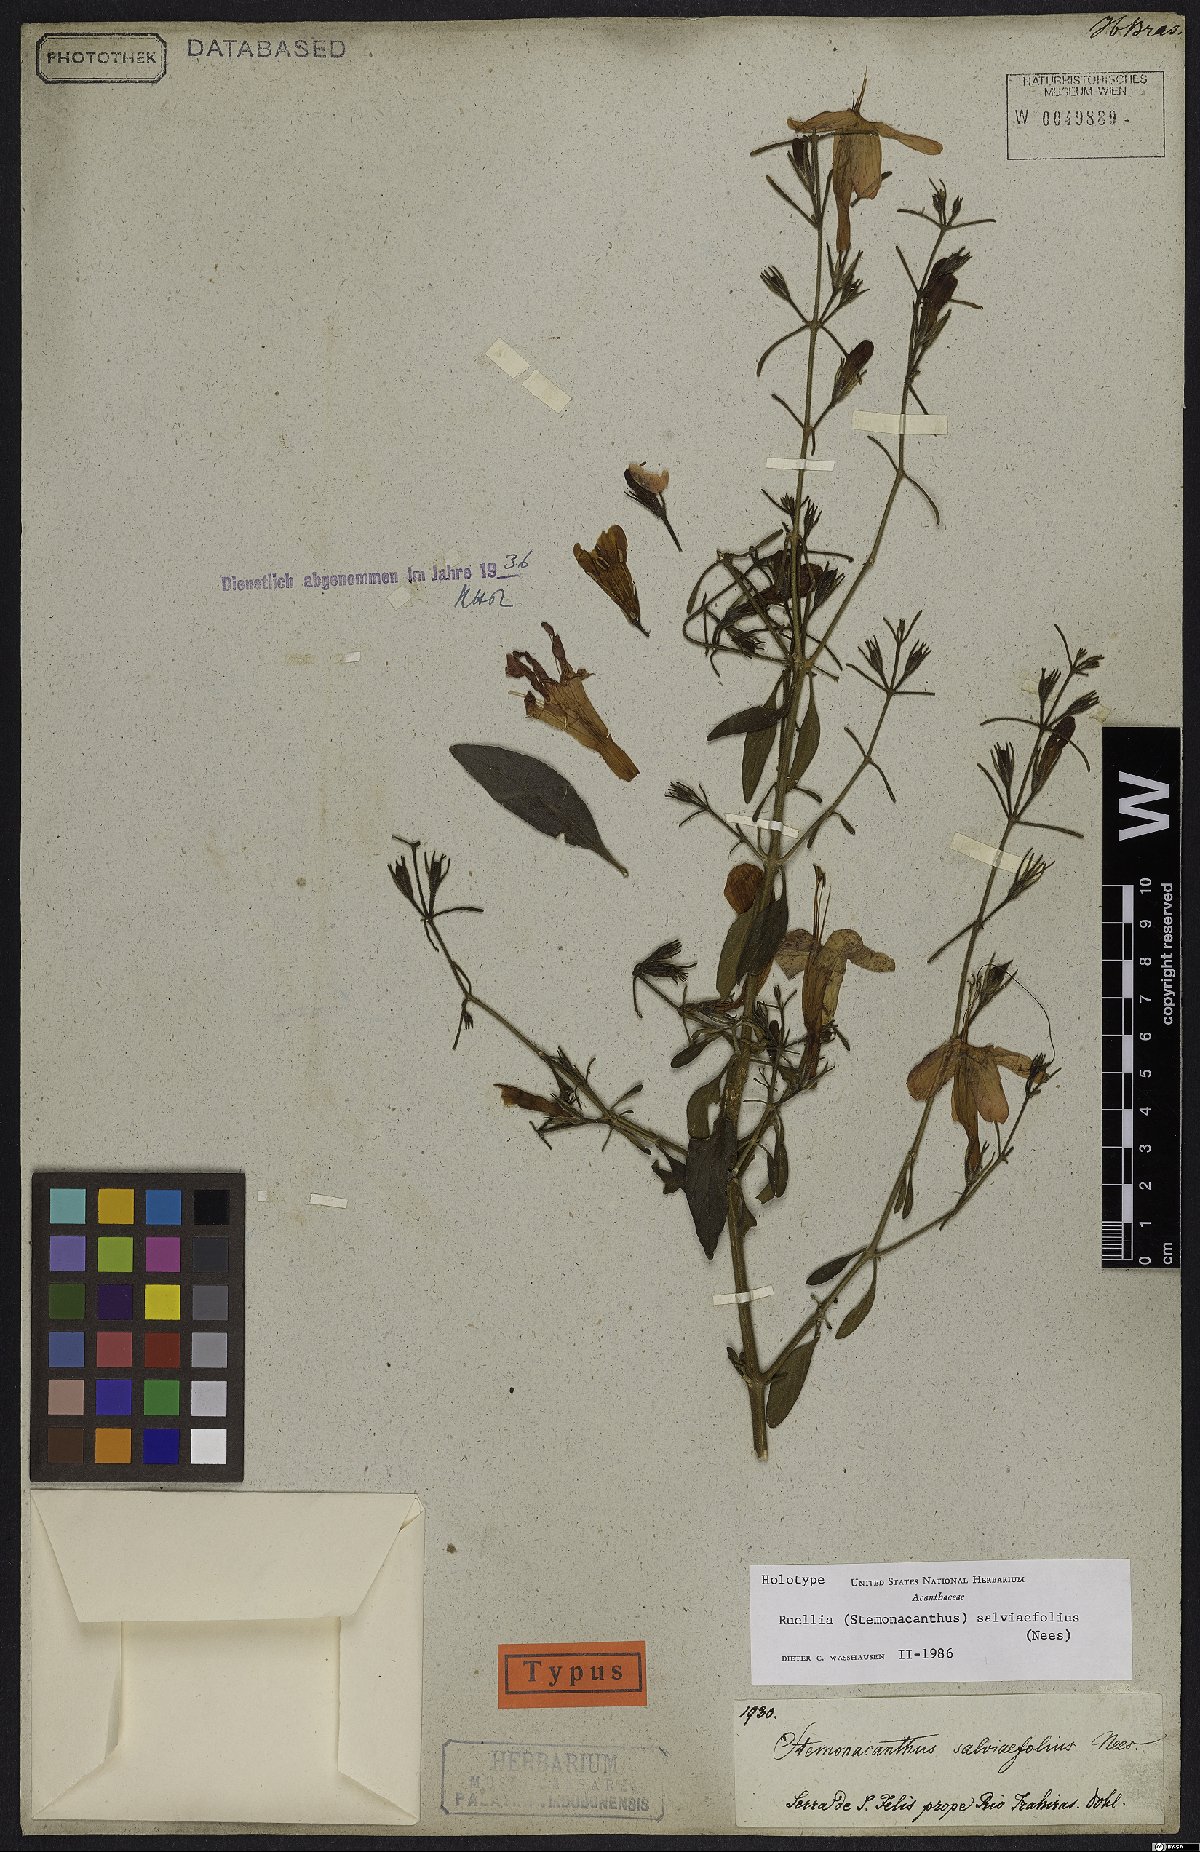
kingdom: Plantae
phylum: Tracheophyta
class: Magnoliopsida
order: Lamiales
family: Acanthaceae
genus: Ruellia
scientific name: Ruellia salviifolia
